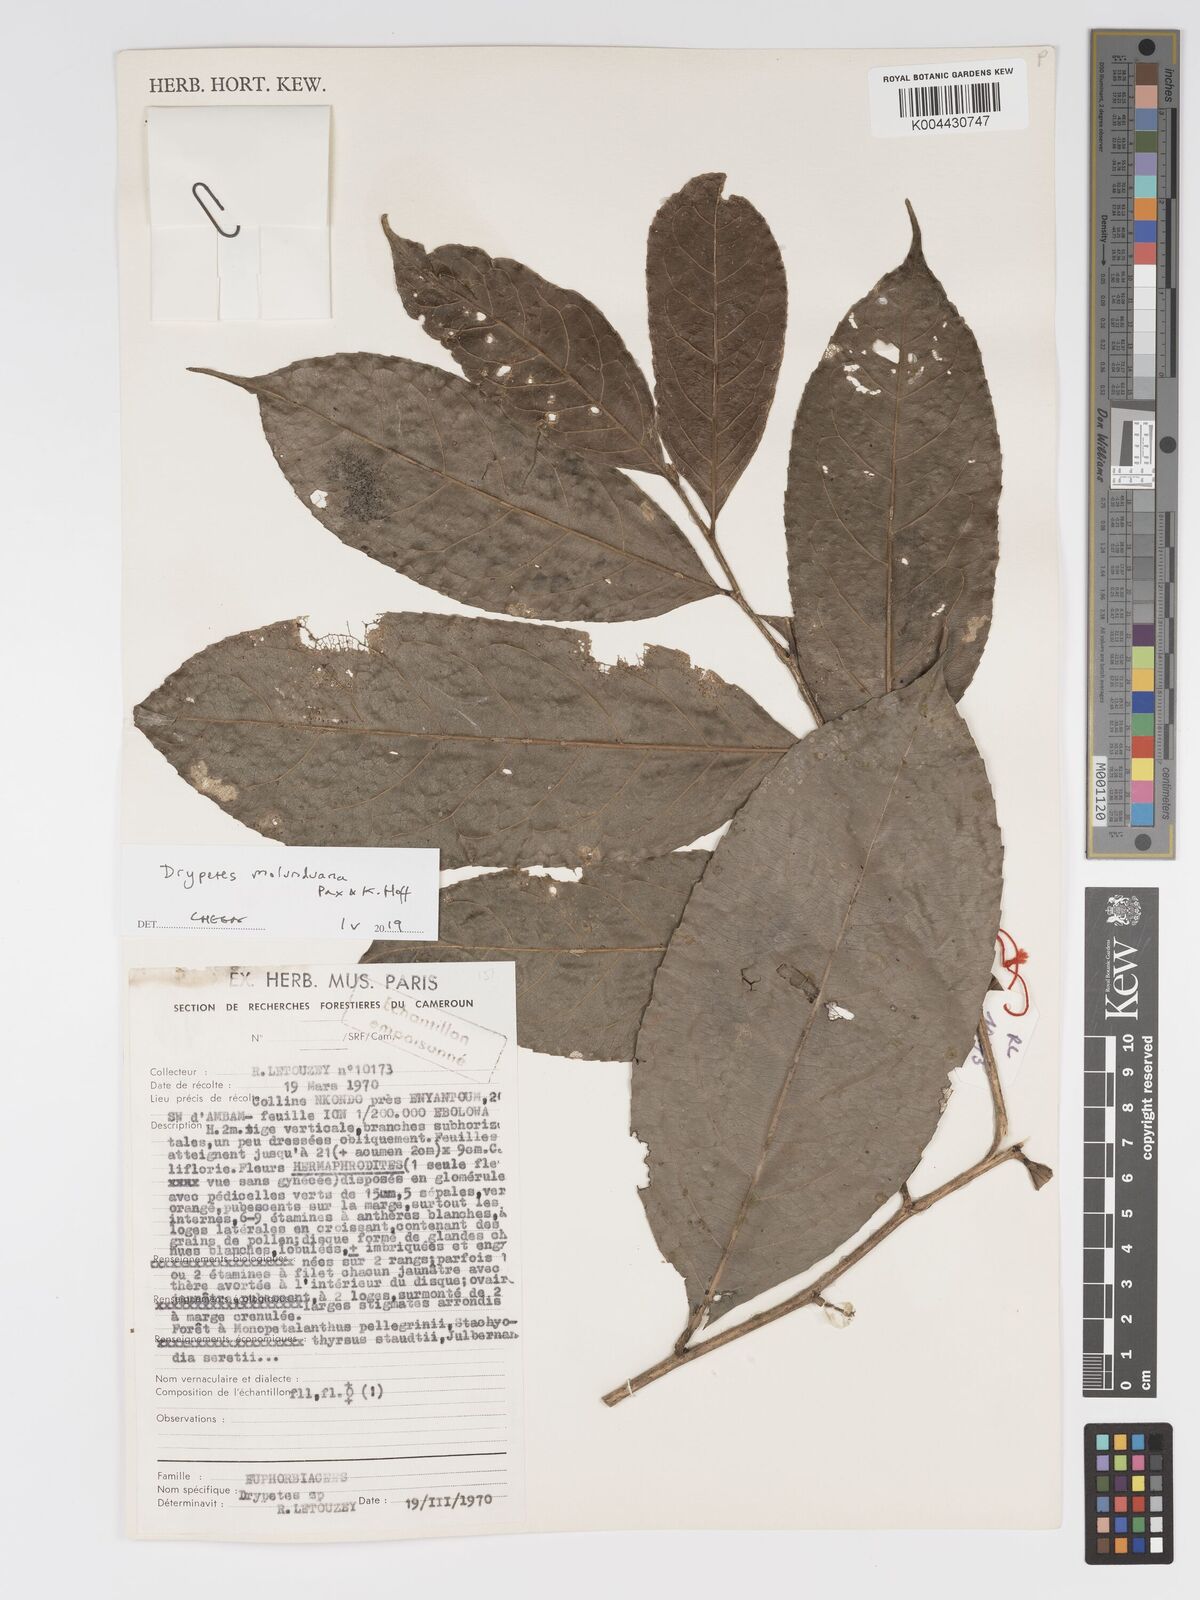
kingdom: Plantae
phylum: Tracheophyta
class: Magnoliopsida
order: Malpighiales
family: Putranjivaceae
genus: Drypetes
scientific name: Drypetes molunduana
